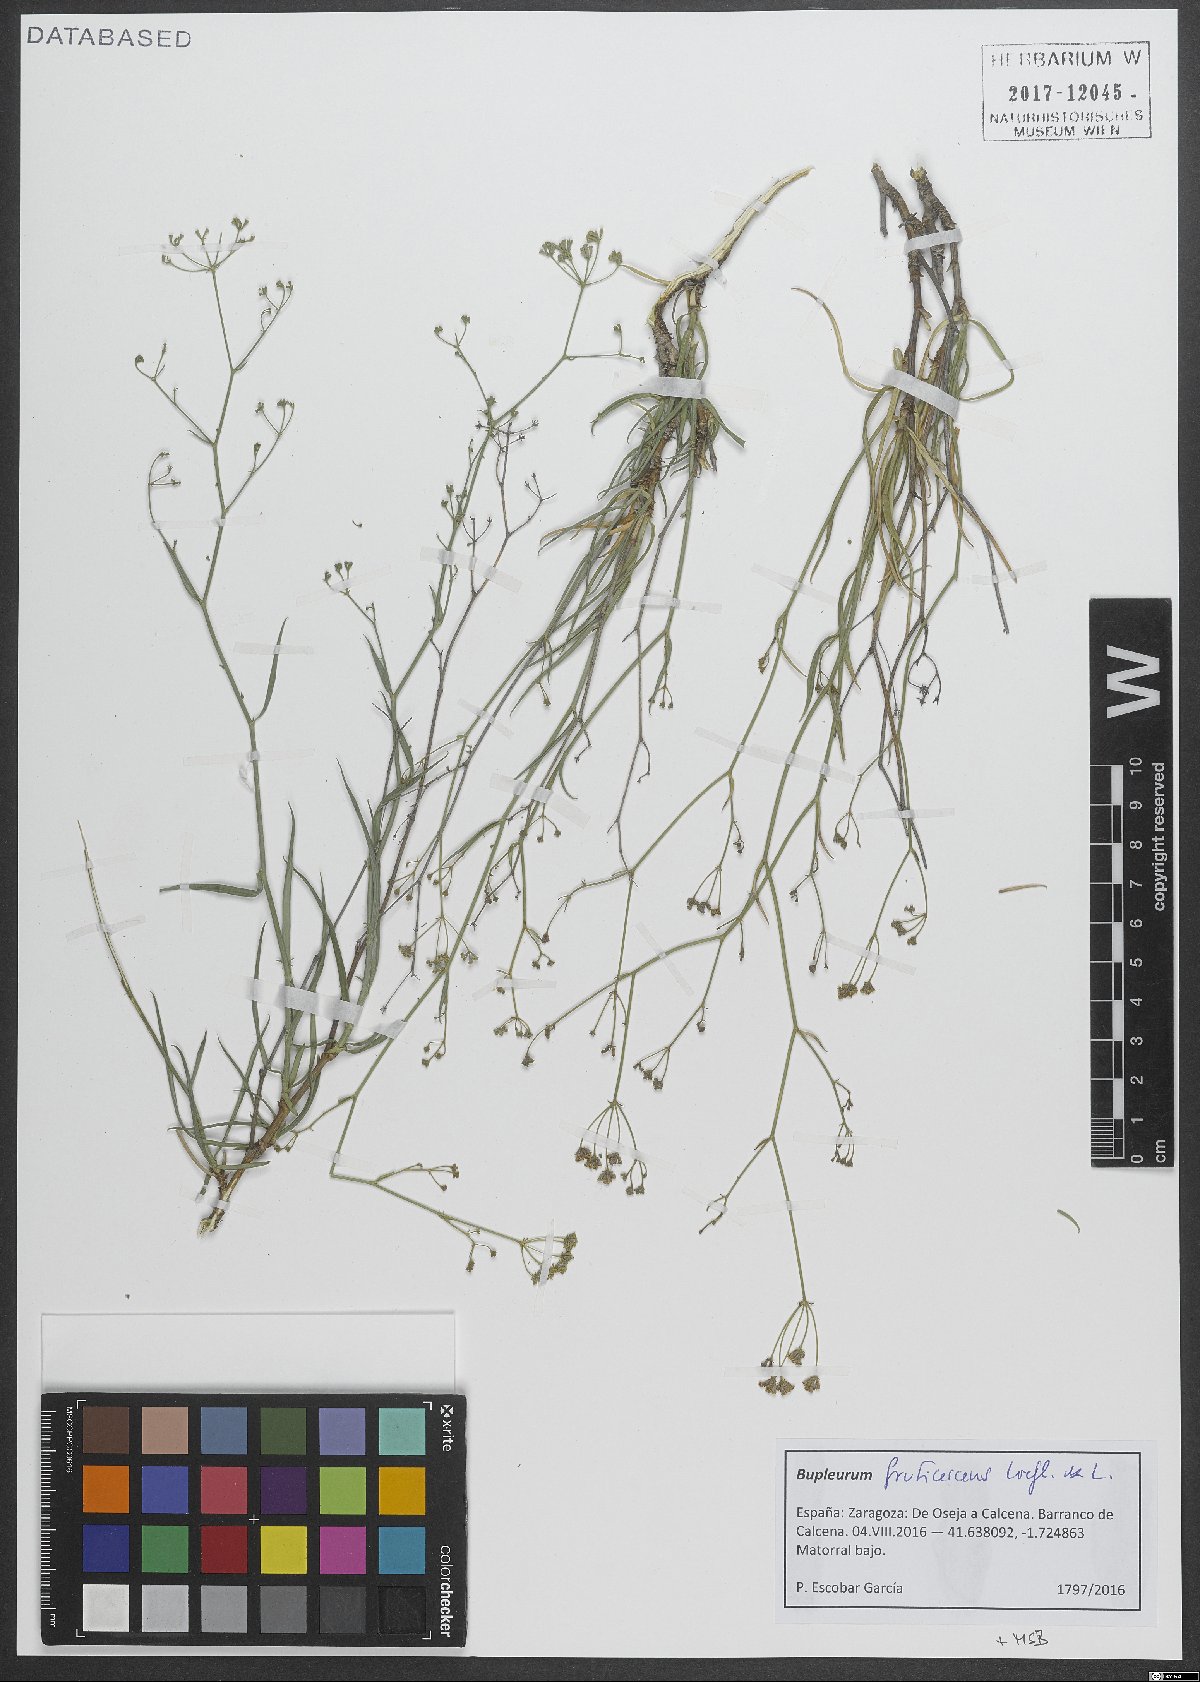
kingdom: Plantae
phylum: Tracheophyta
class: Magnoliopsida
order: Apiales
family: Apiaceae
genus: Bupleurum
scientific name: Bupleurum fruticescens
